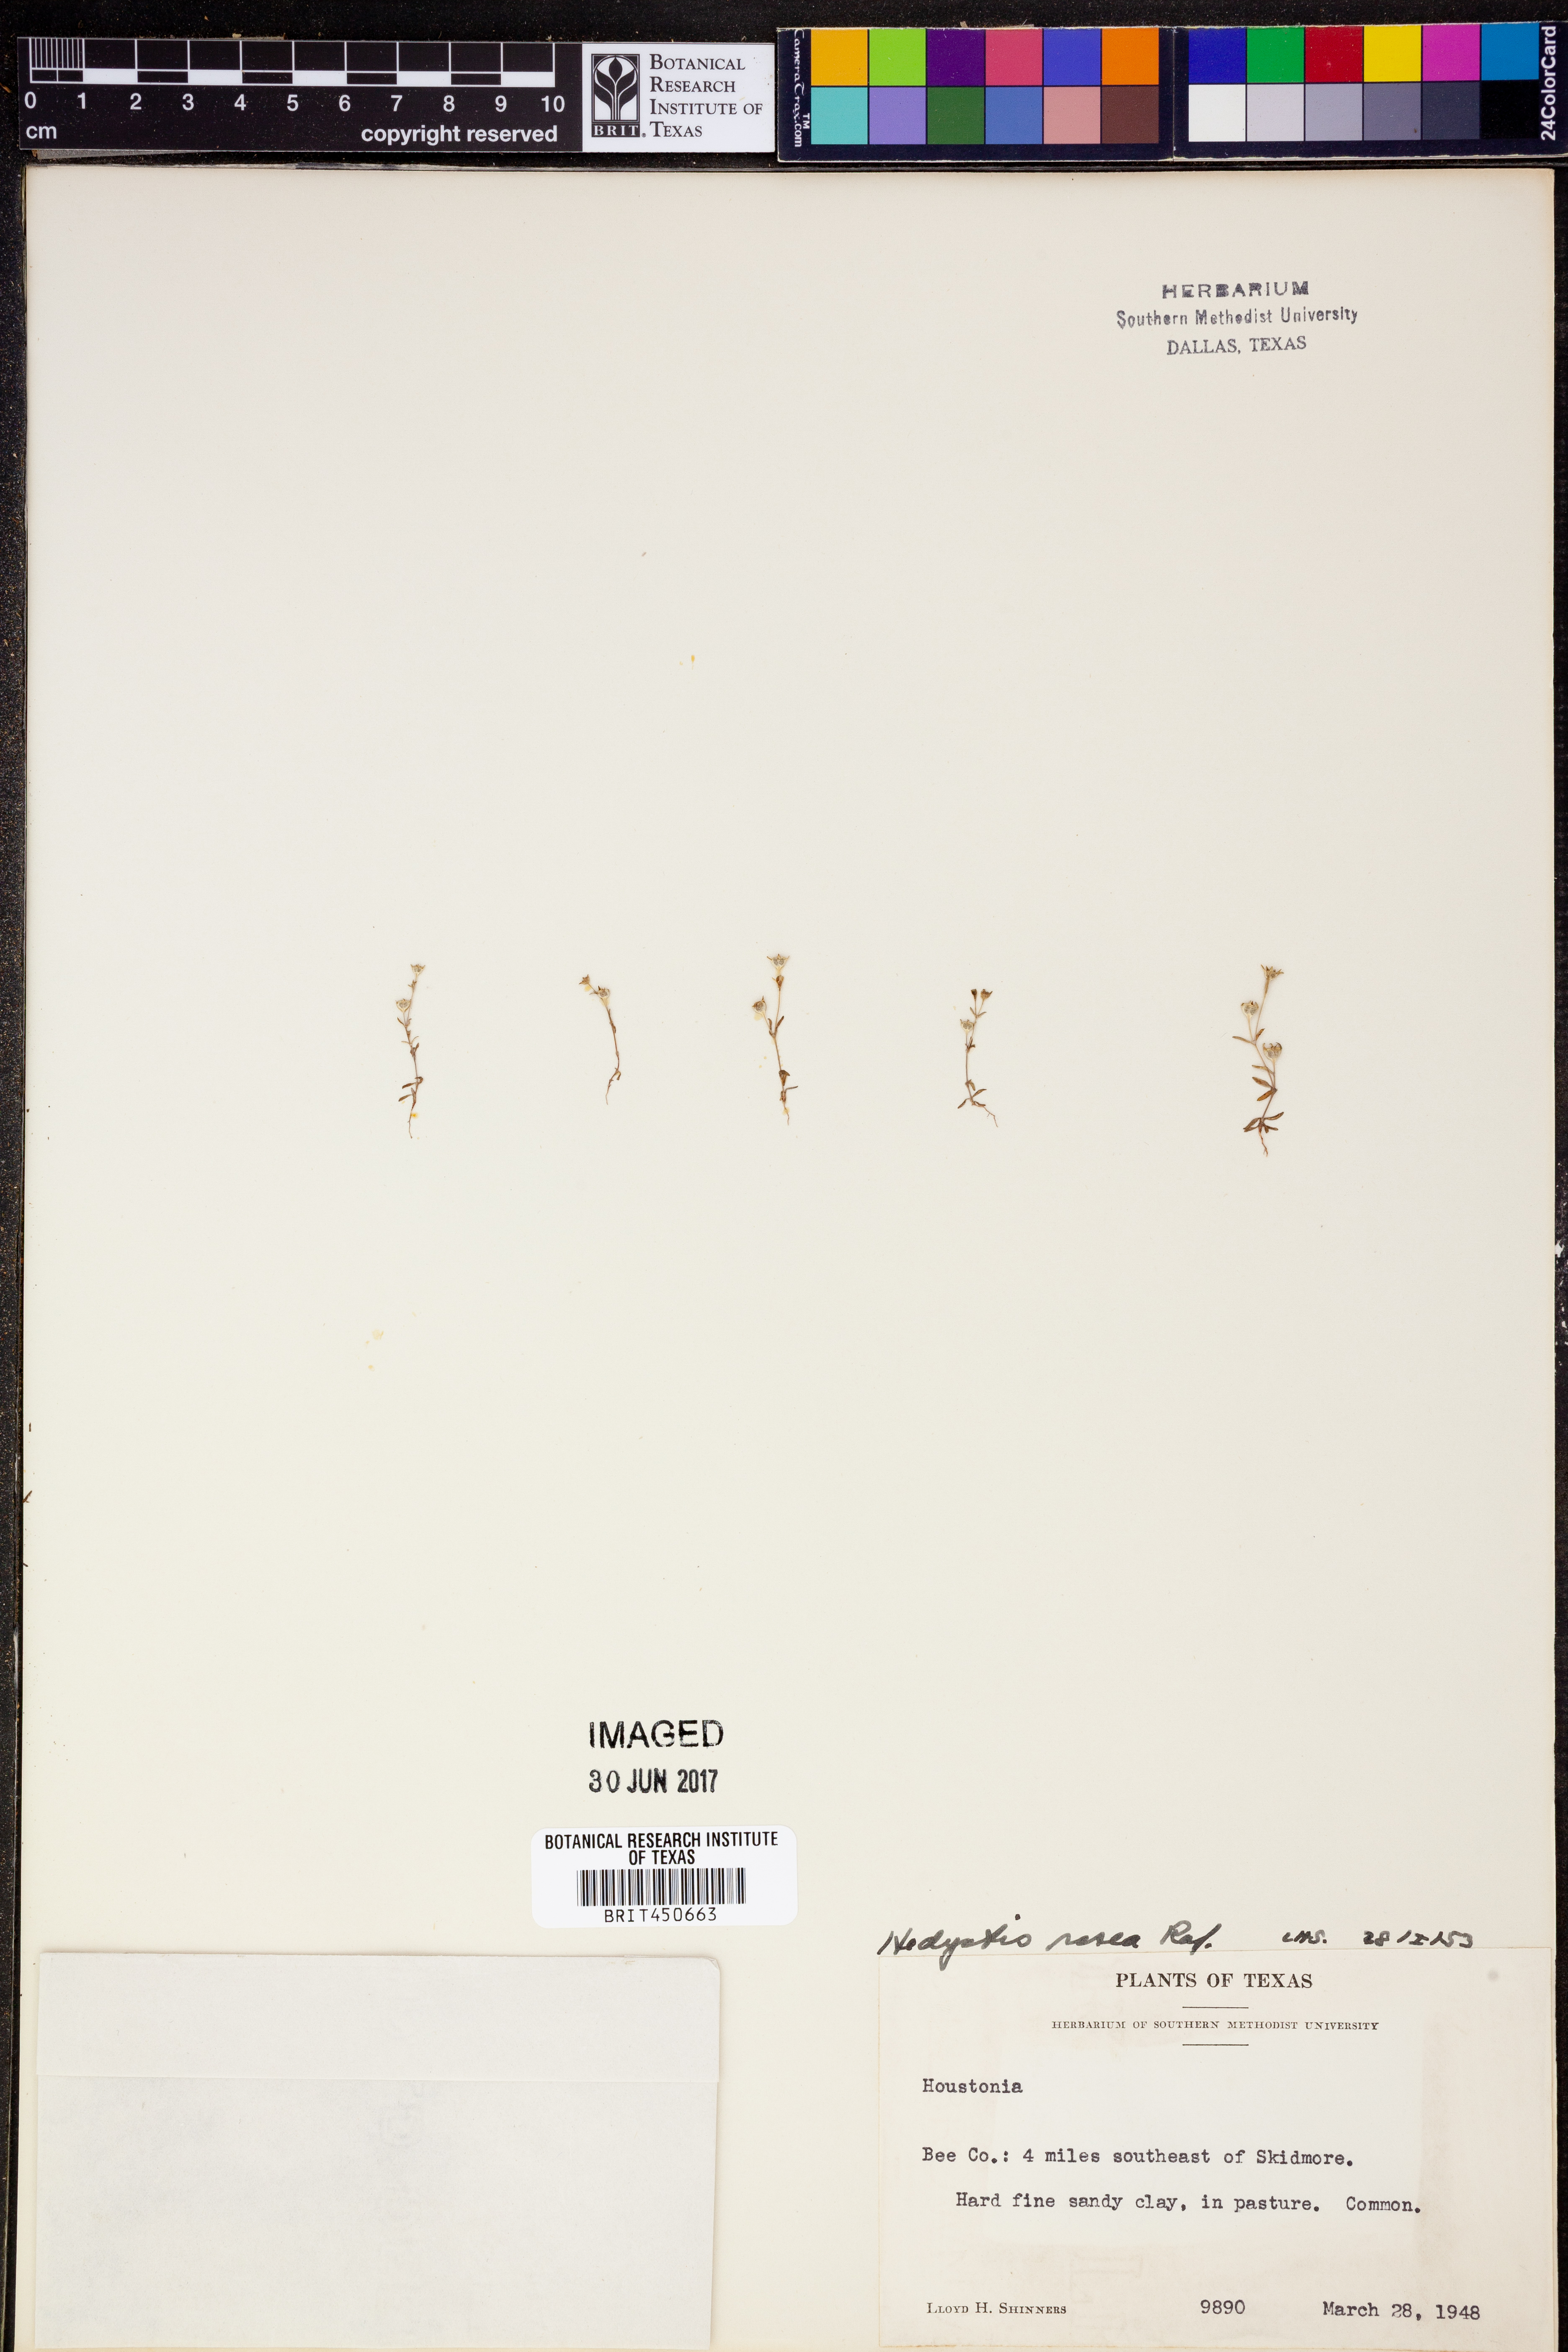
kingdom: Plantae
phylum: Tracheophyta
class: Magnoliopsida
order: Gentianales
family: Rubiaceae
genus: Houstonia
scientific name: Houstonia rosea
